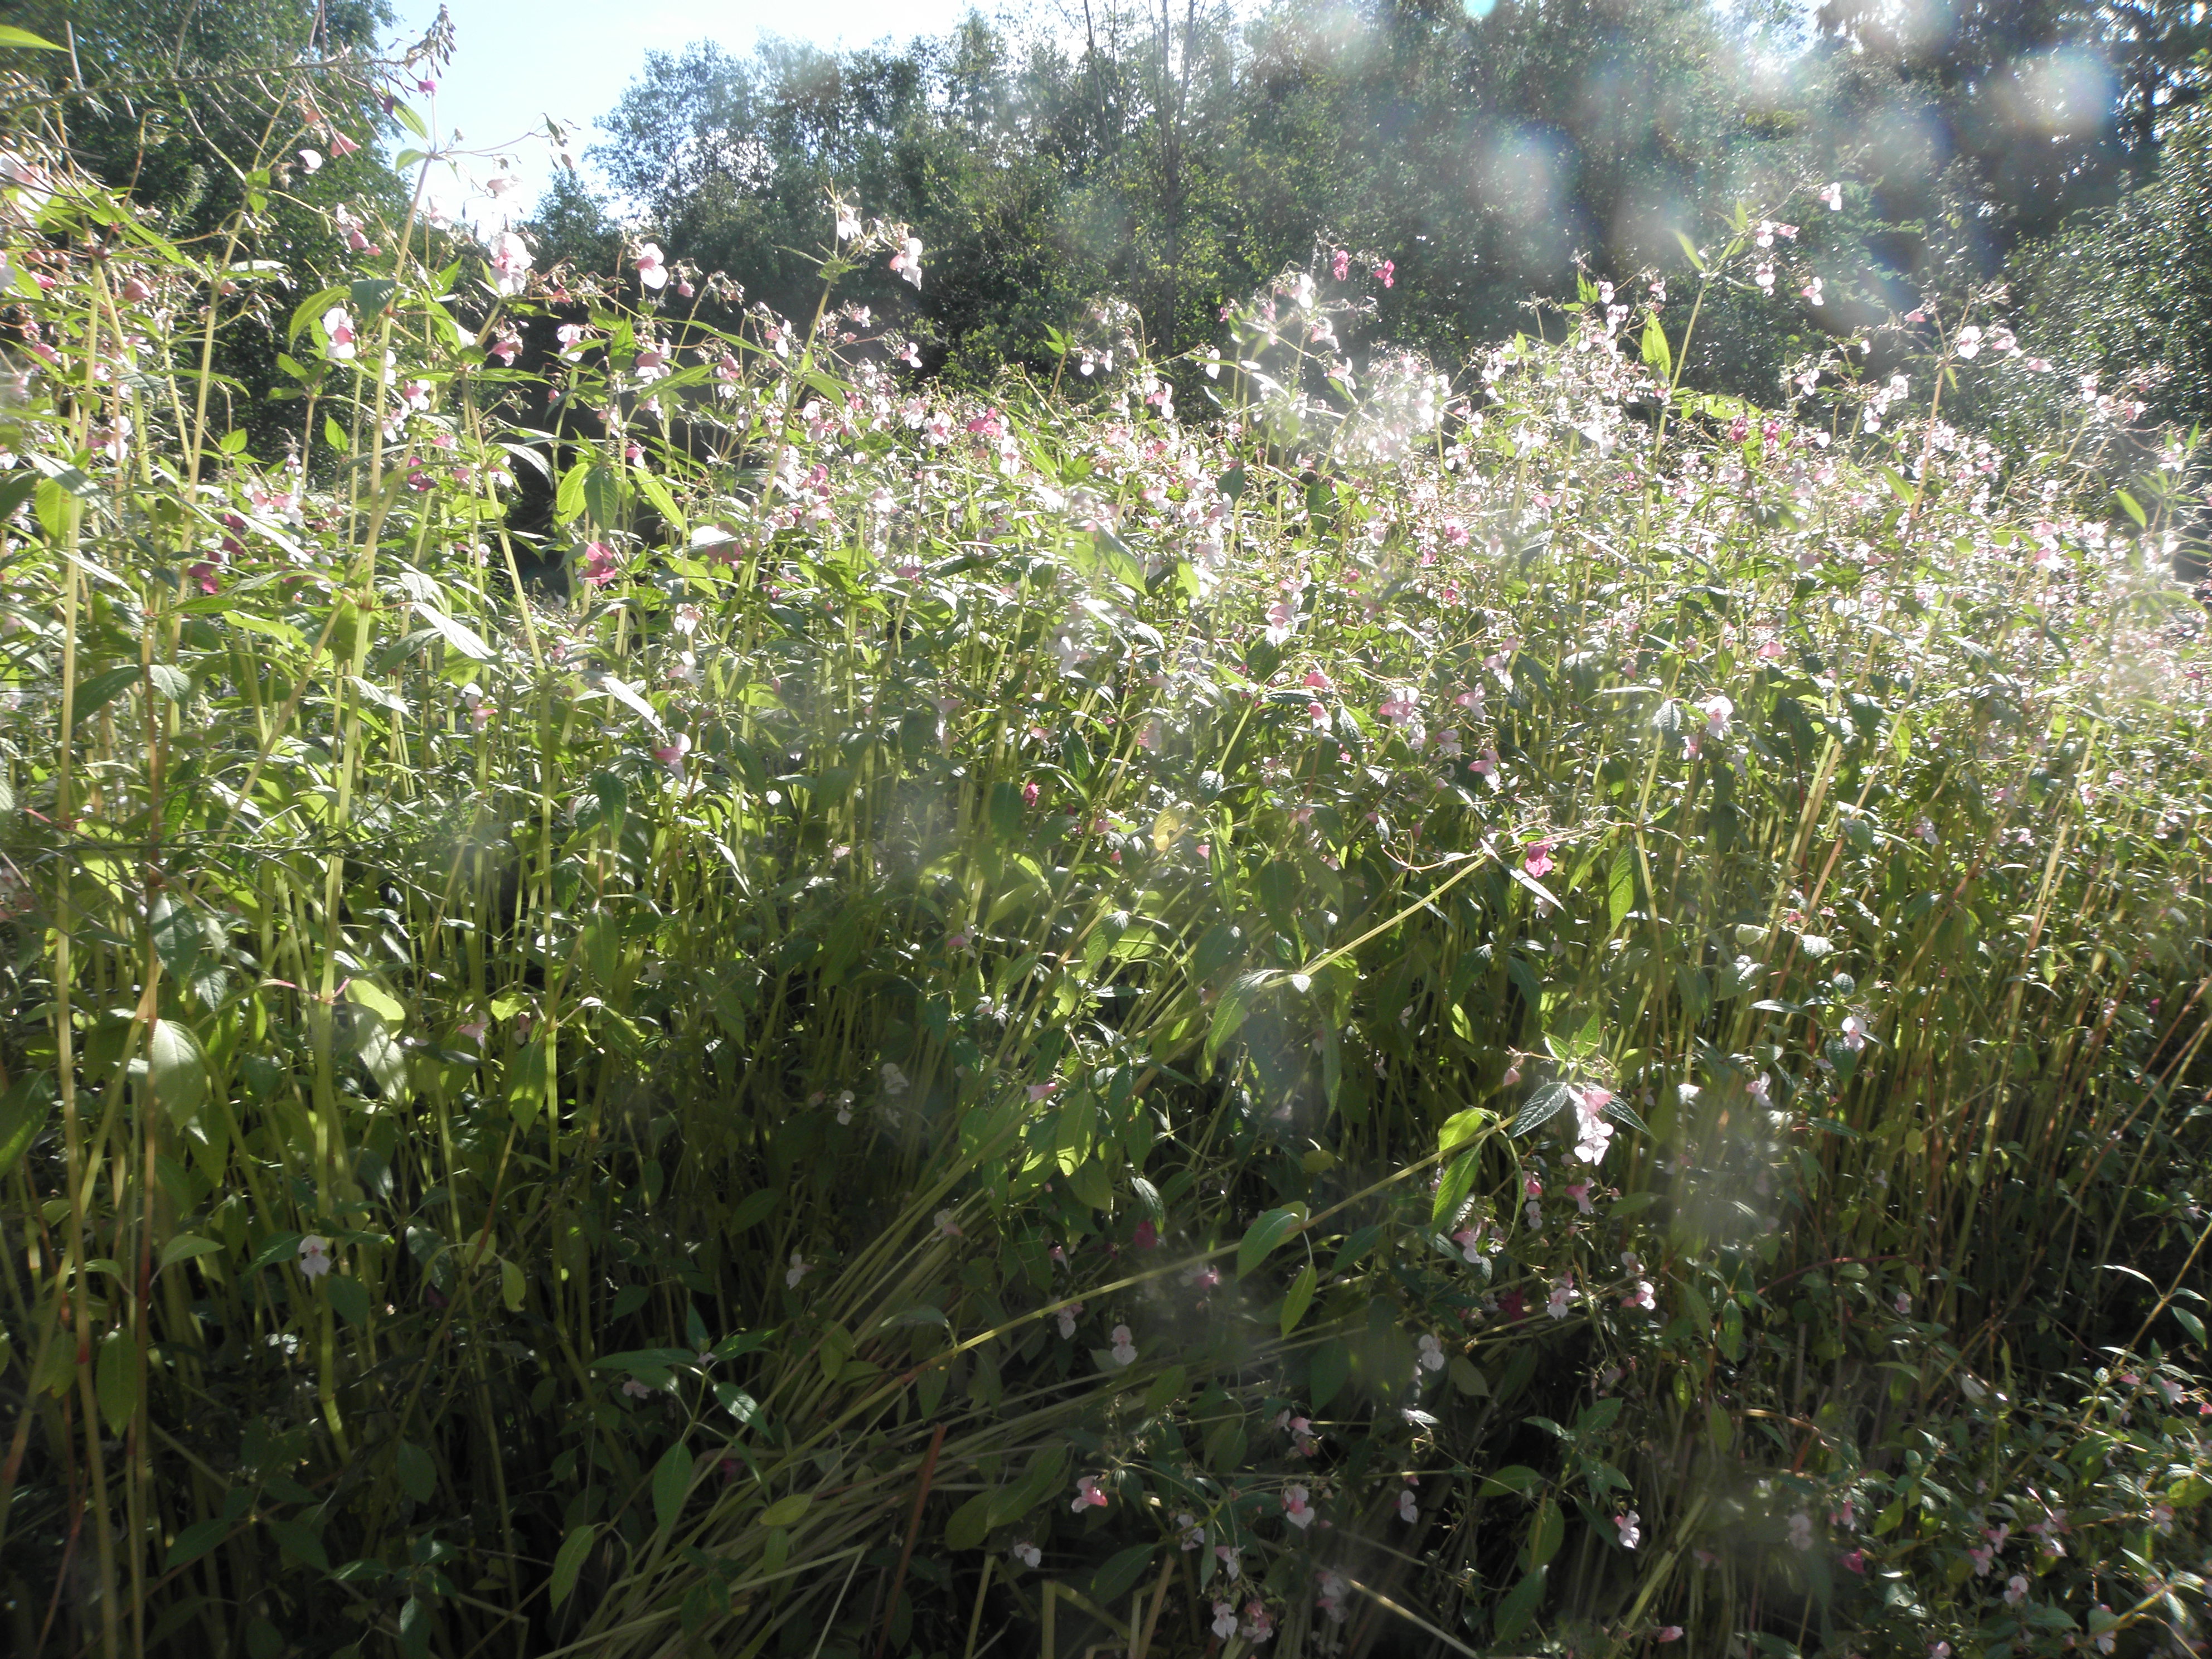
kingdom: Plantae
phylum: Tracheophyta
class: Magnoliopsida
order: Ericales
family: Balsaminaceae
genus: Impatiens
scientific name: Impatiens glandulifera
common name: Himalayan balsam
